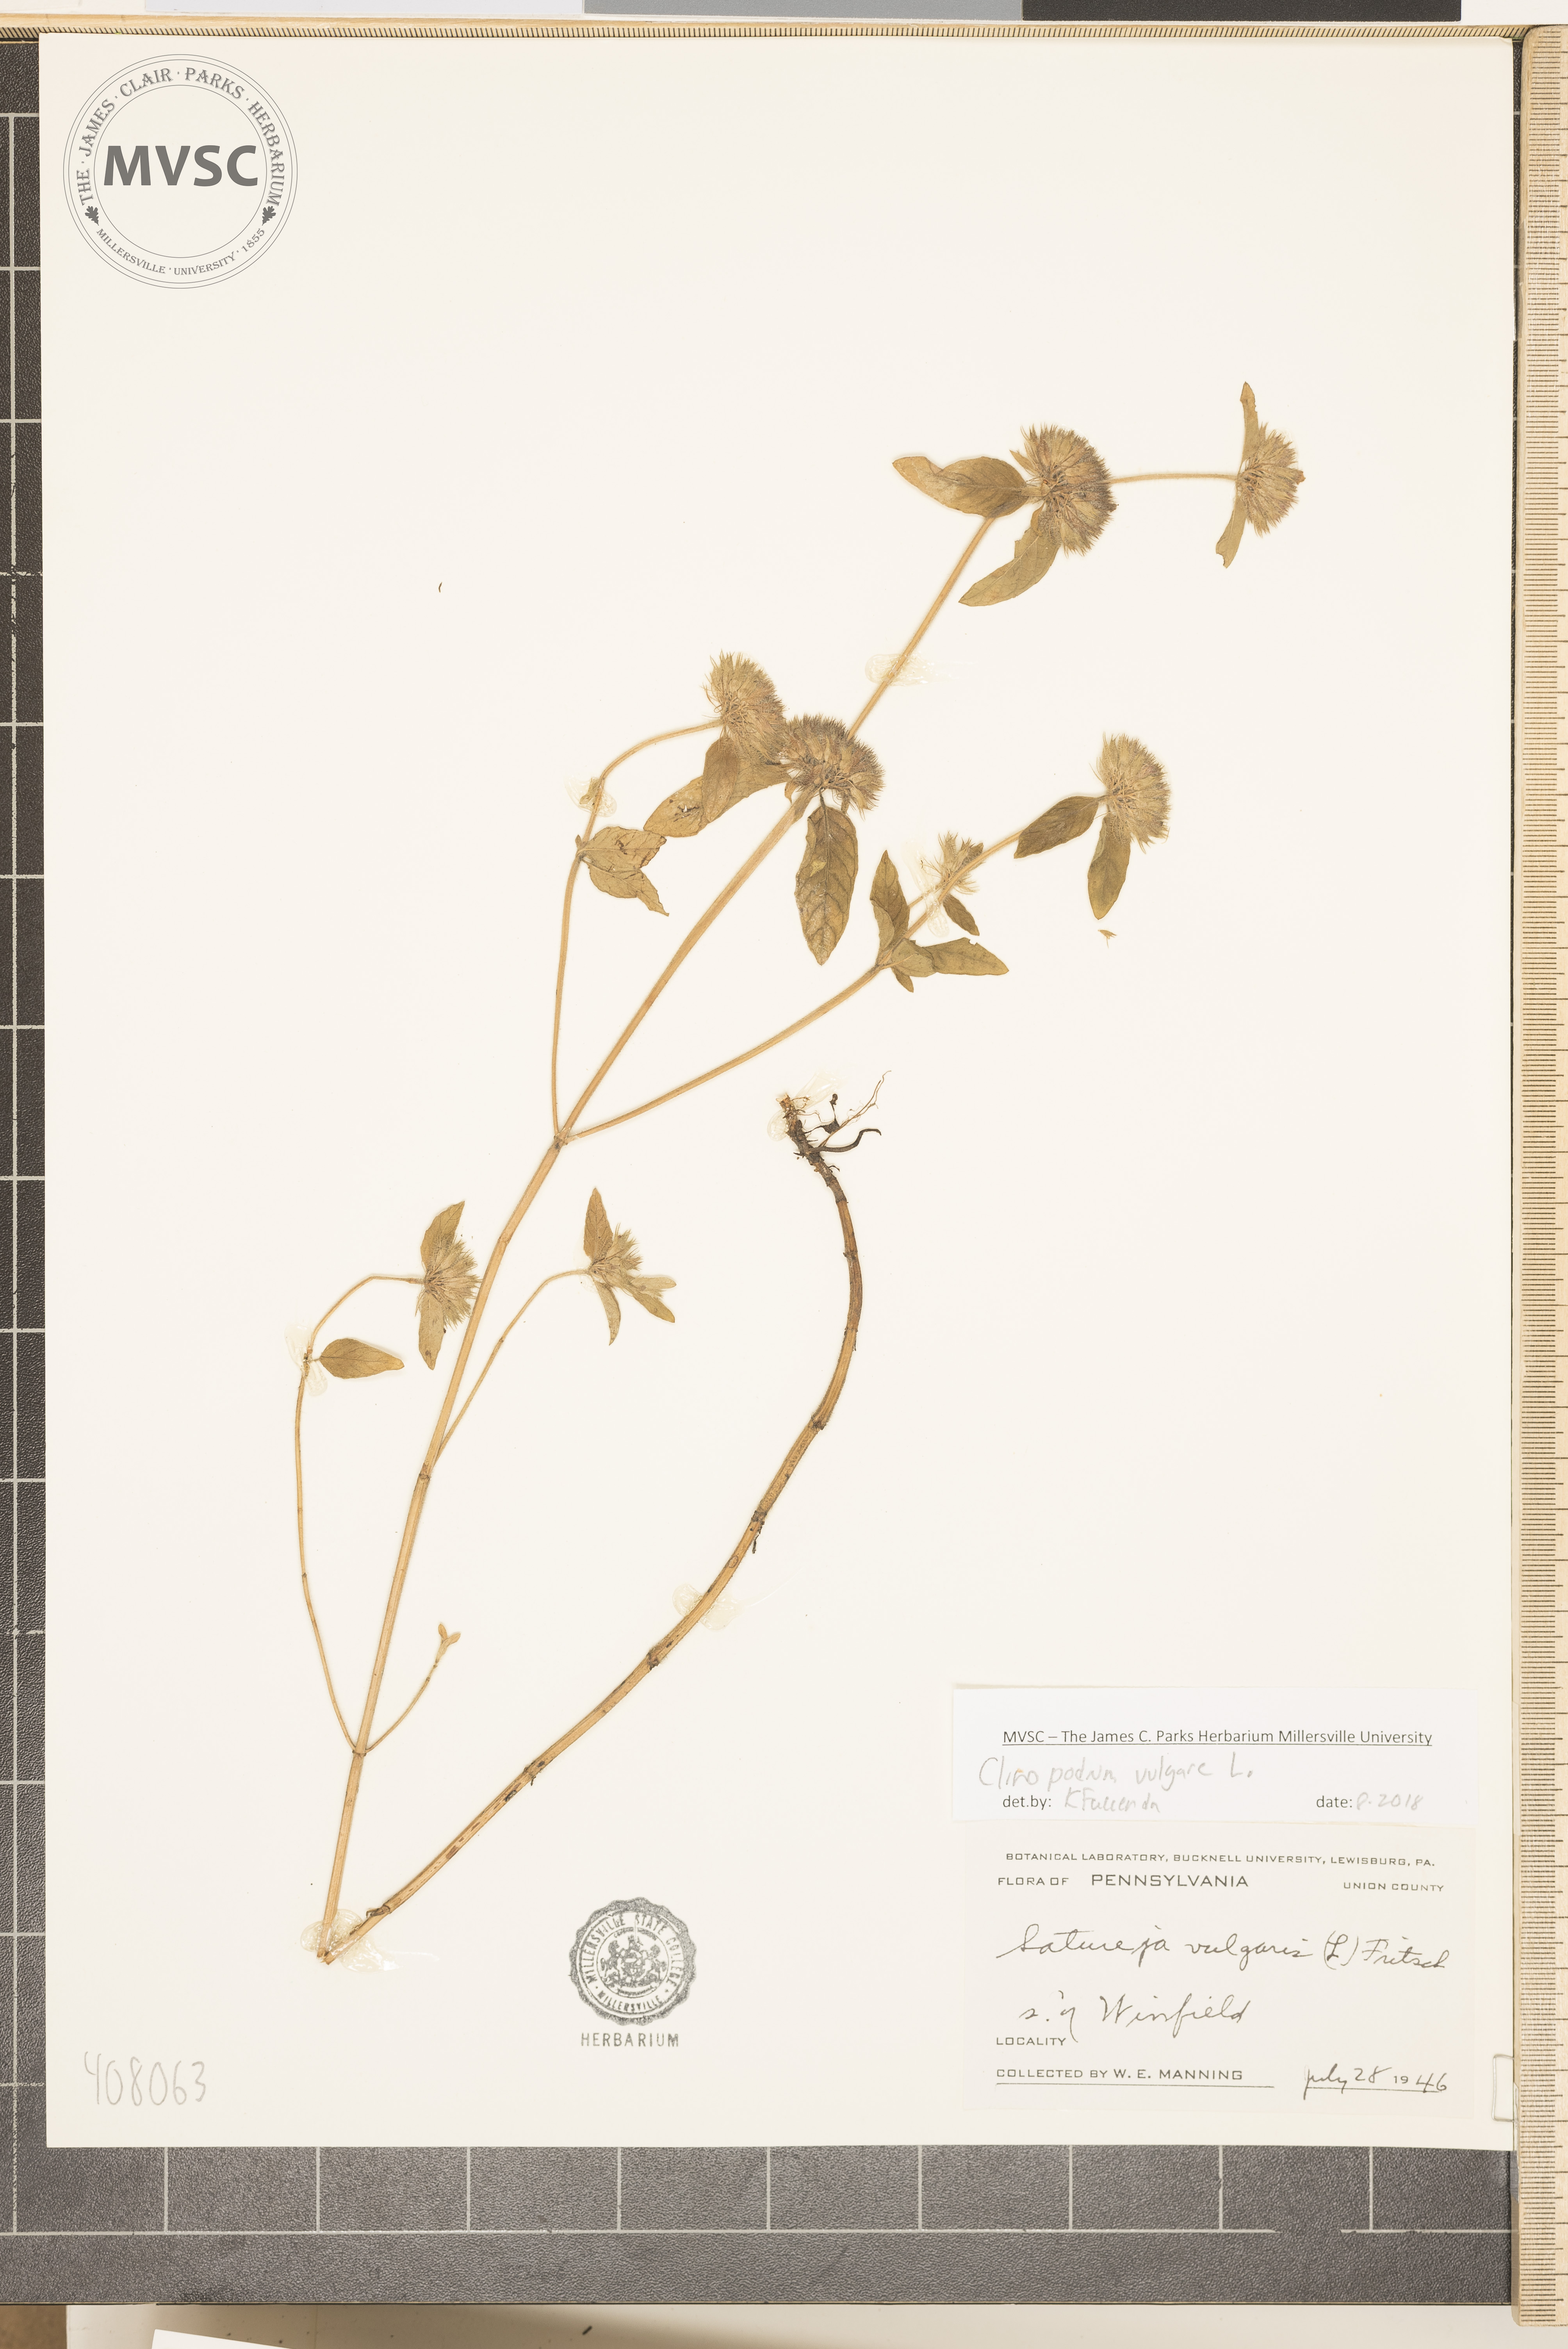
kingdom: Plantae
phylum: Tracheophyta
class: Magnoliopsida
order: Lamiales
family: Lamiaceae
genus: Clinopodium
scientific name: Clinopodium vulgare
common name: Wild basil
